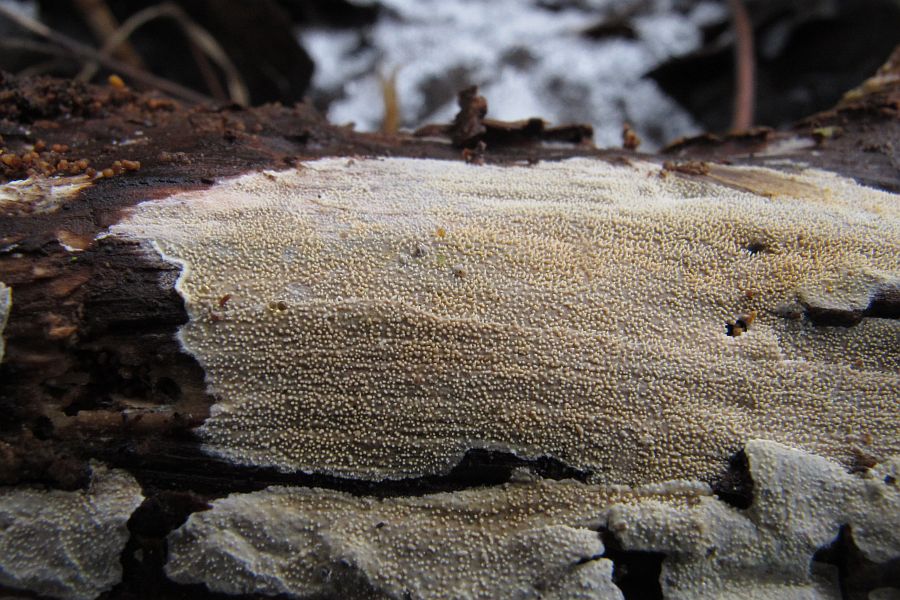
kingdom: Fungi
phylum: Basidiomycota
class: Agaricomycetes
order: Hymenochaetales
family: Rickenellaceae
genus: Resinicium
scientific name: Resinicium bicolor
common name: almindelig vokstand
